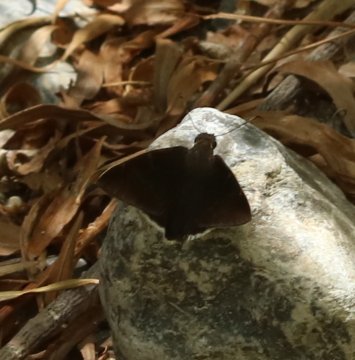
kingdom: Animalia
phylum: Arthropoda
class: Insecta
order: Lepidoptera
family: Hesperiidae
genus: Achalarus
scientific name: Achalarus
